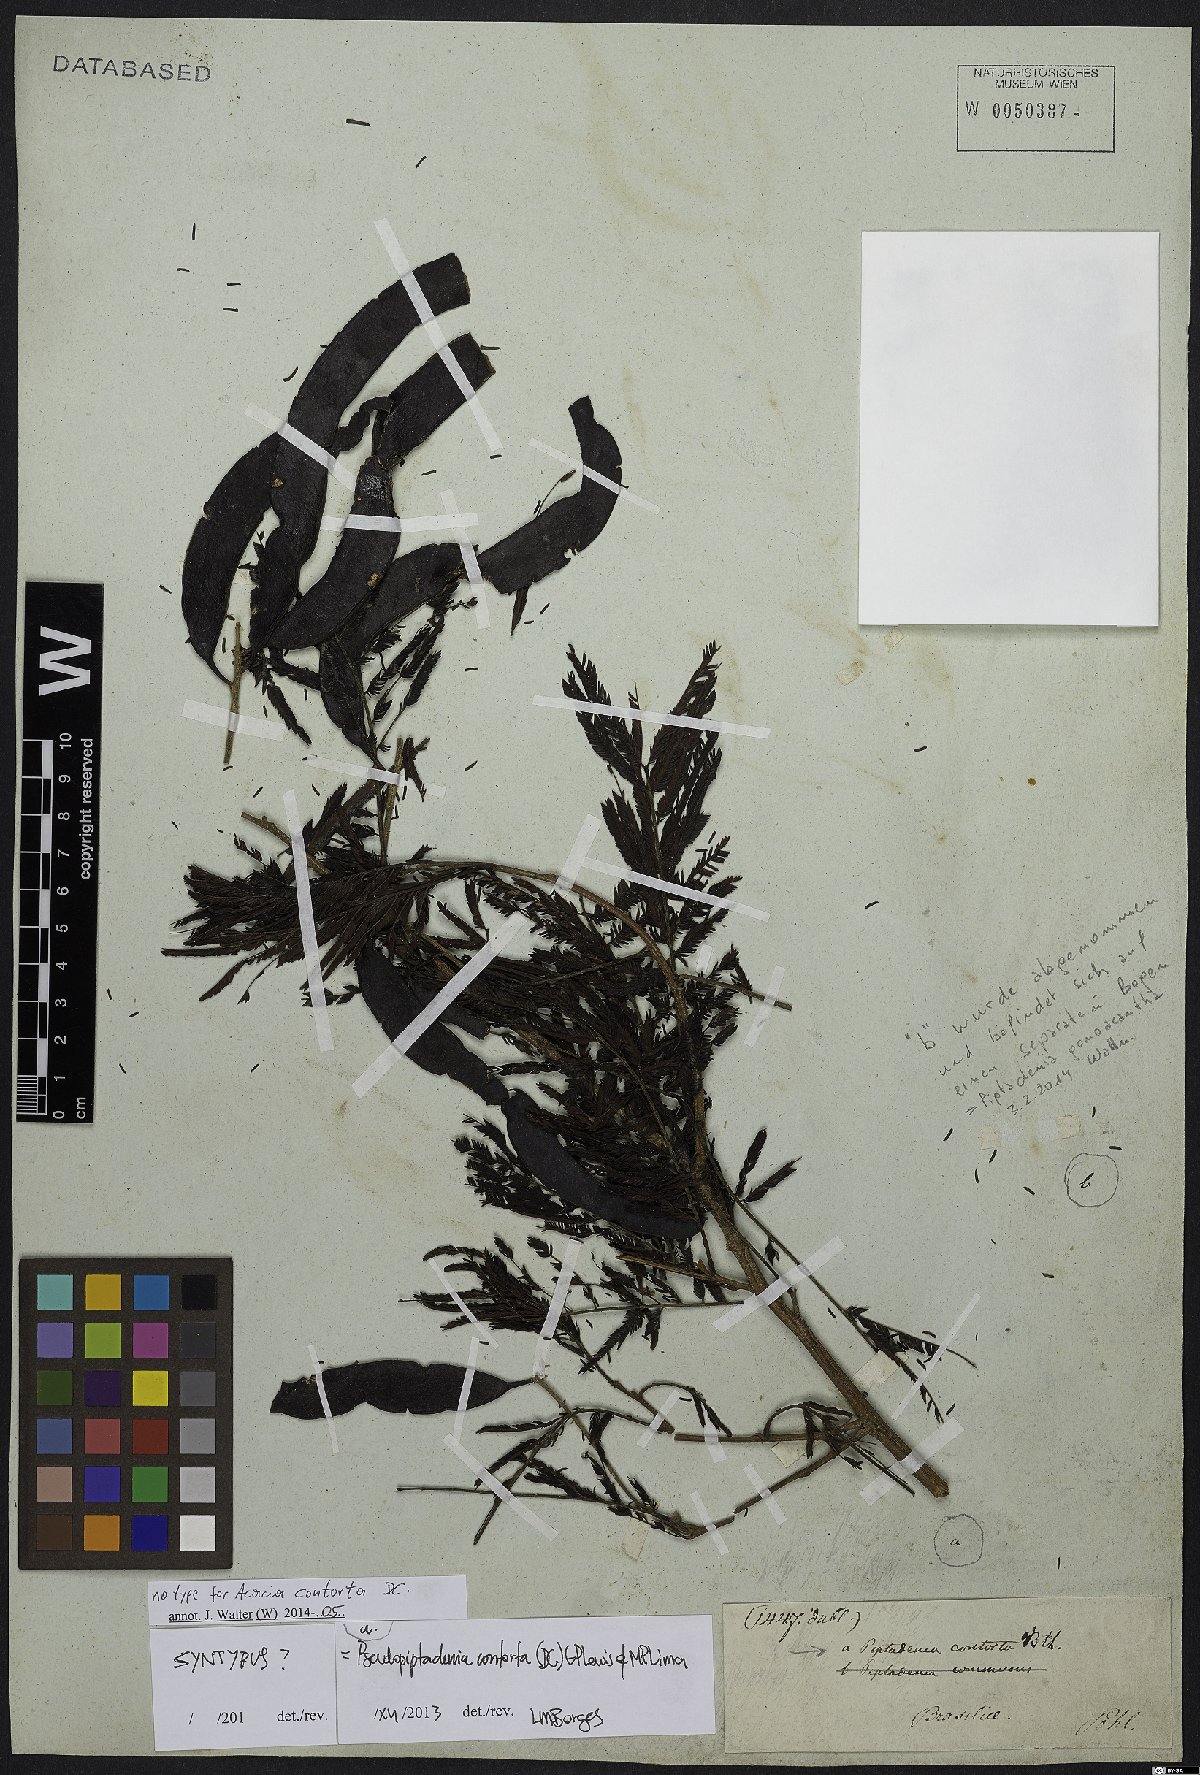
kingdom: Plantae
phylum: Tracheophyta
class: Magnoliopsida
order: Fabales
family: Fabaceae
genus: Pseudopiptadenia
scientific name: Pseudopiptadenia contorta
